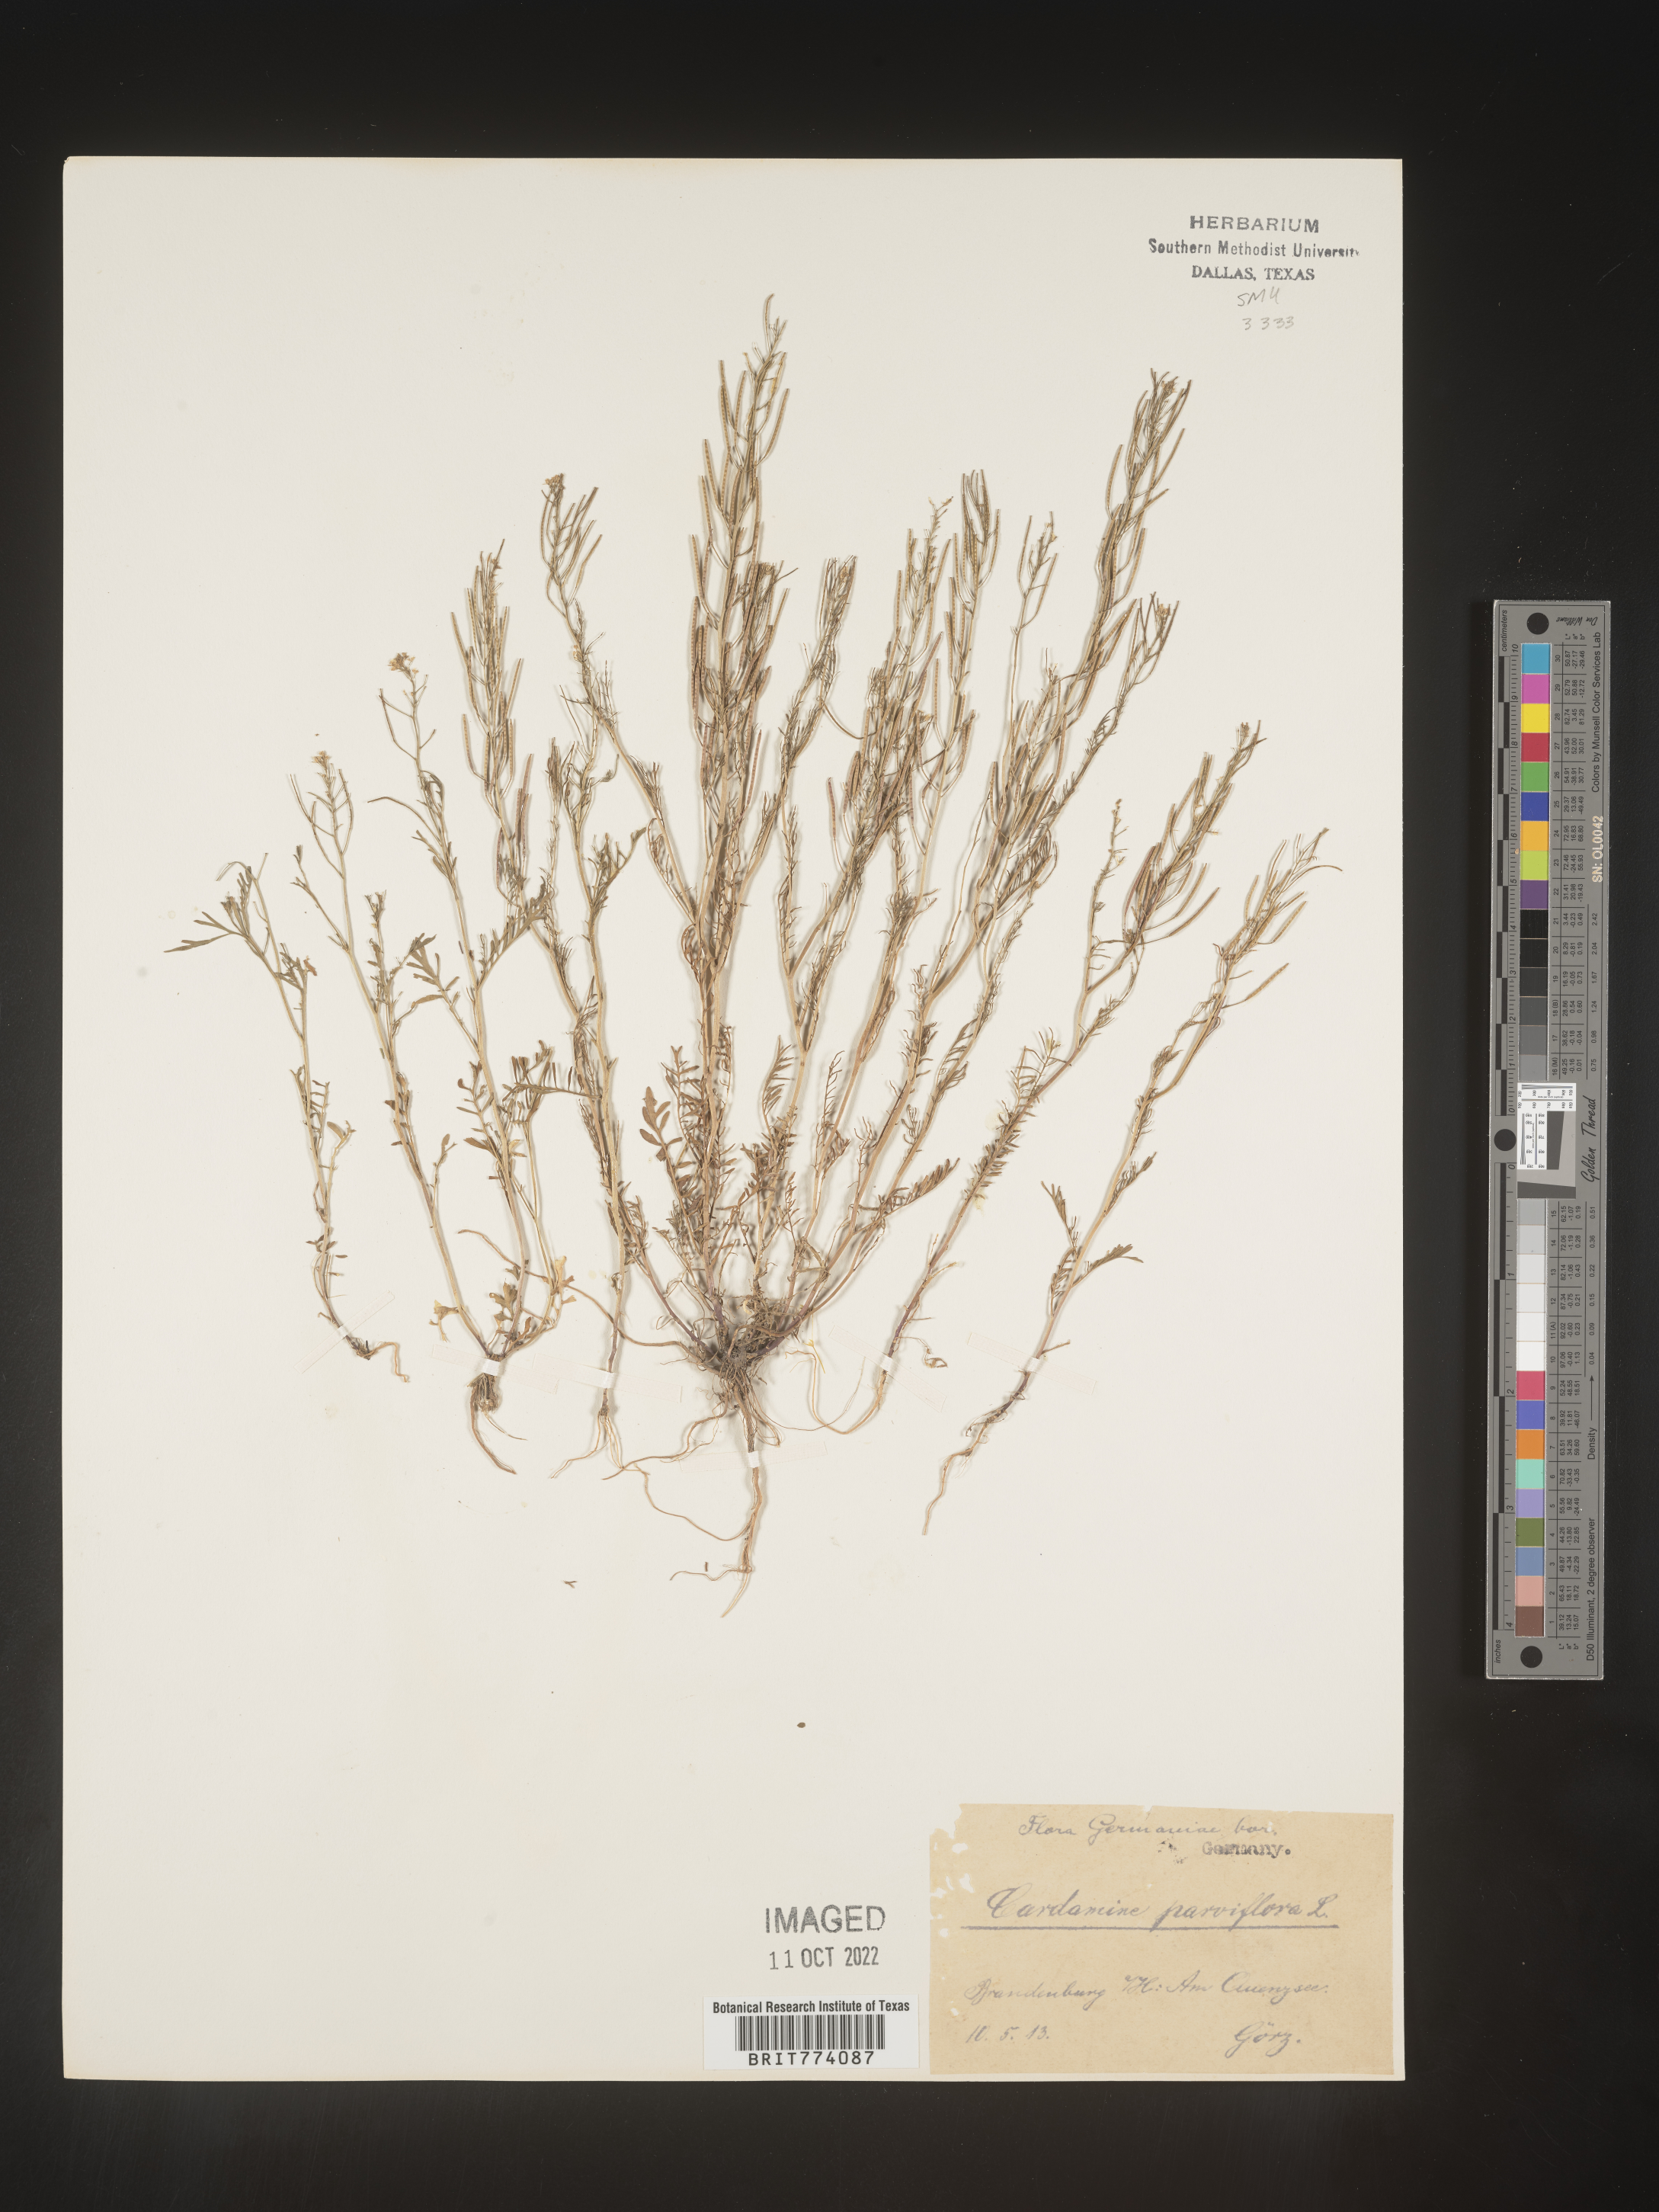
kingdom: Plantae
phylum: Tracheophyta
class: Magnoliopsida
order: Brassicales
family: Brassicaceae
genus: Cardamine
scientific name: Cardamine
